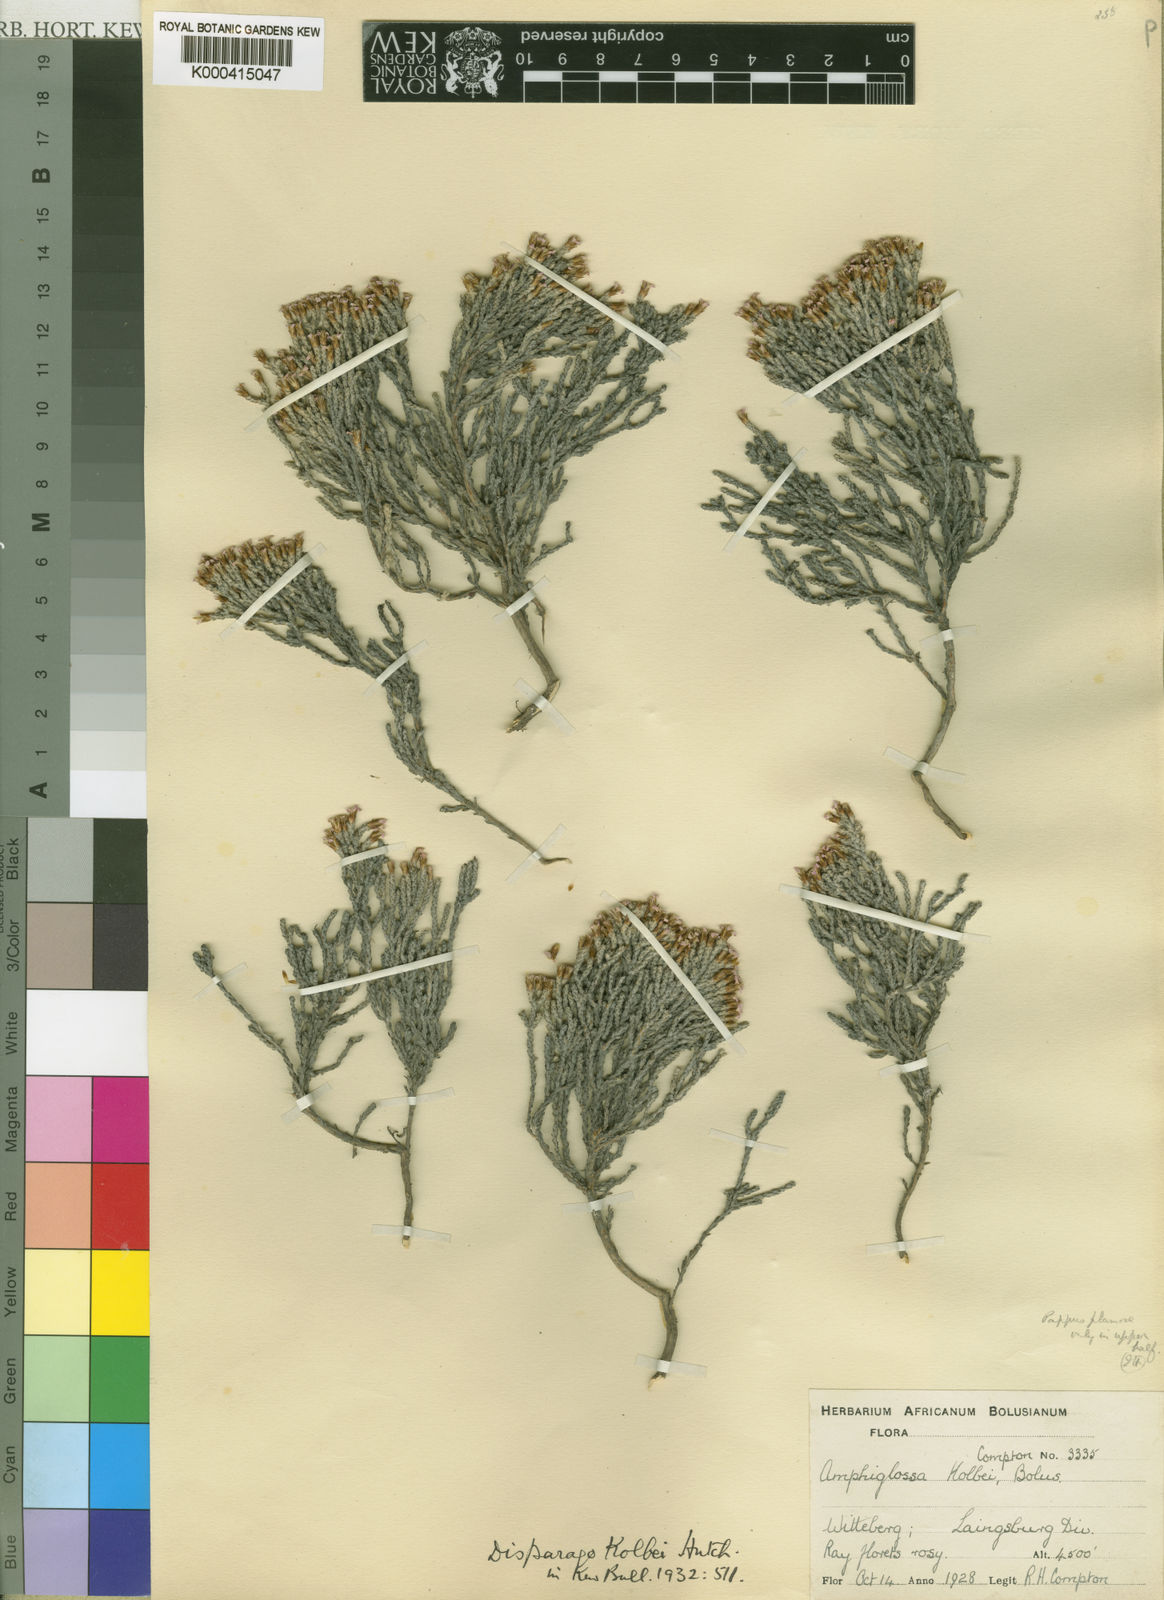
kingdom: Plantae
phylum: Tracheophyta
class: Magnoliopsida
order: Asterales
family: Asteraceae
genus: Disparago
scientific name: Disparago kolbei
